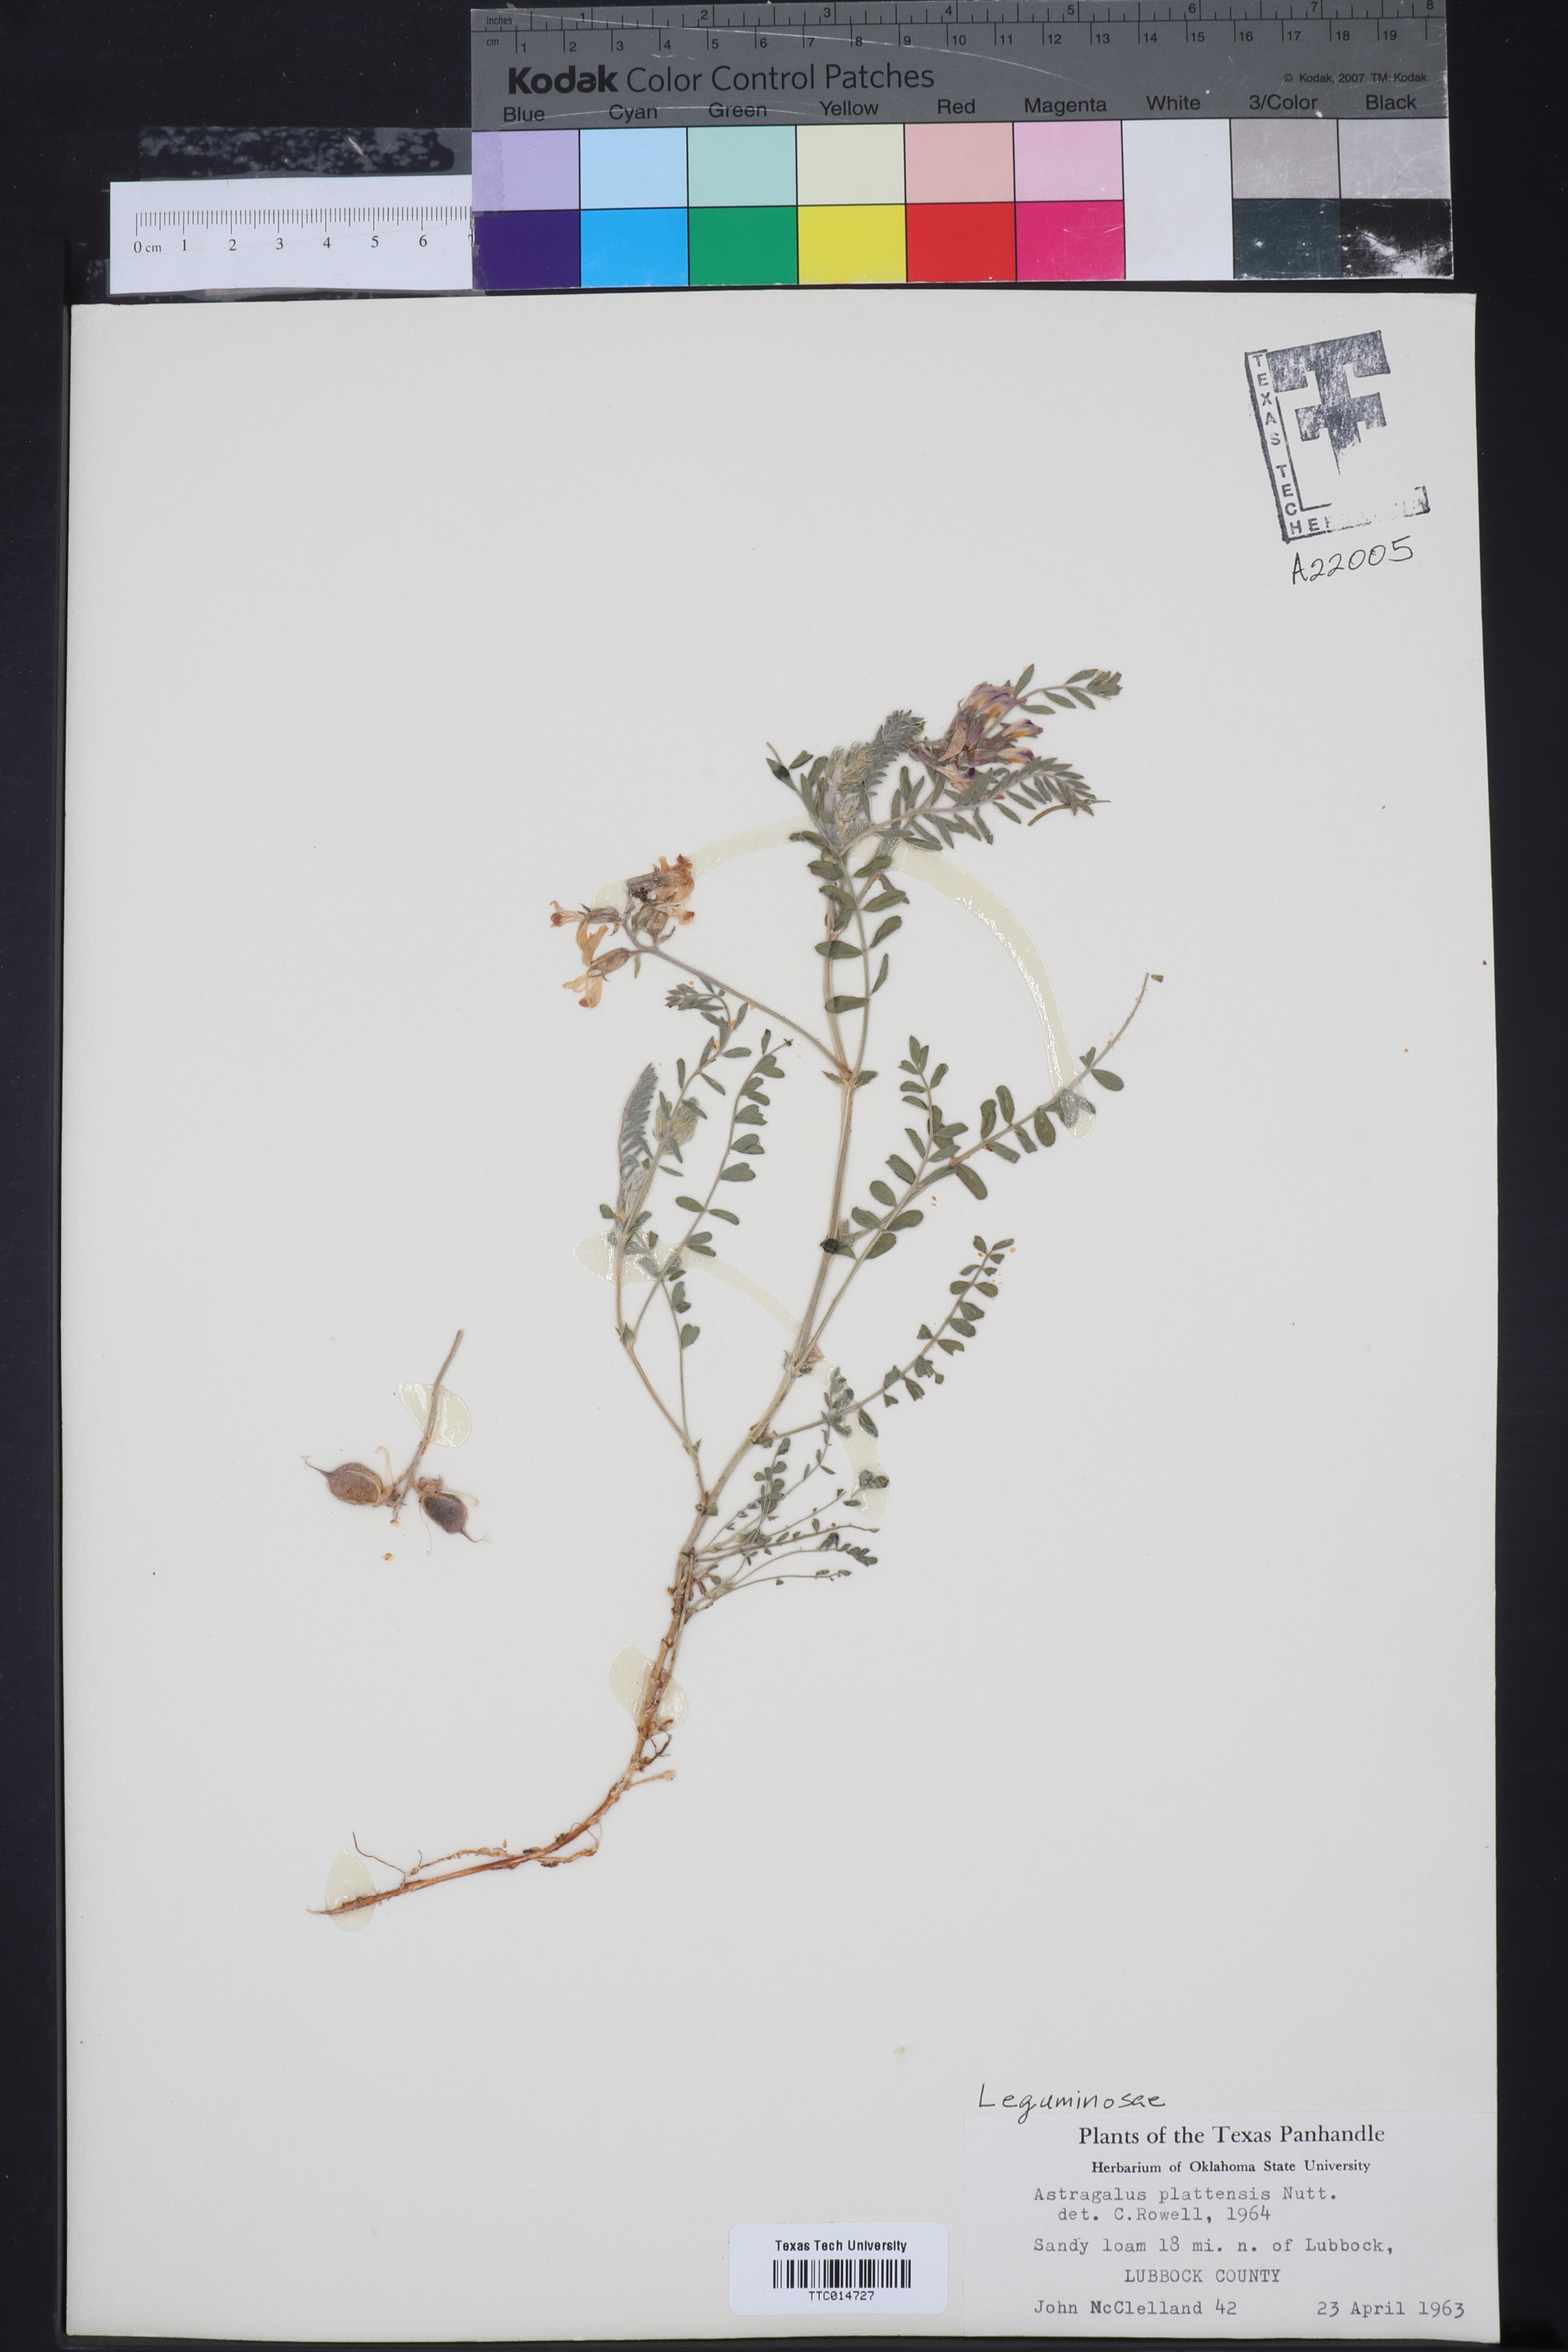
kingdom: Plantae
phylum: Tracheophyta
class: Magnoliopsida
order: Fabales
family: Fabaceae
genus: Astragalus
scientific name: Astragalus plattensis
